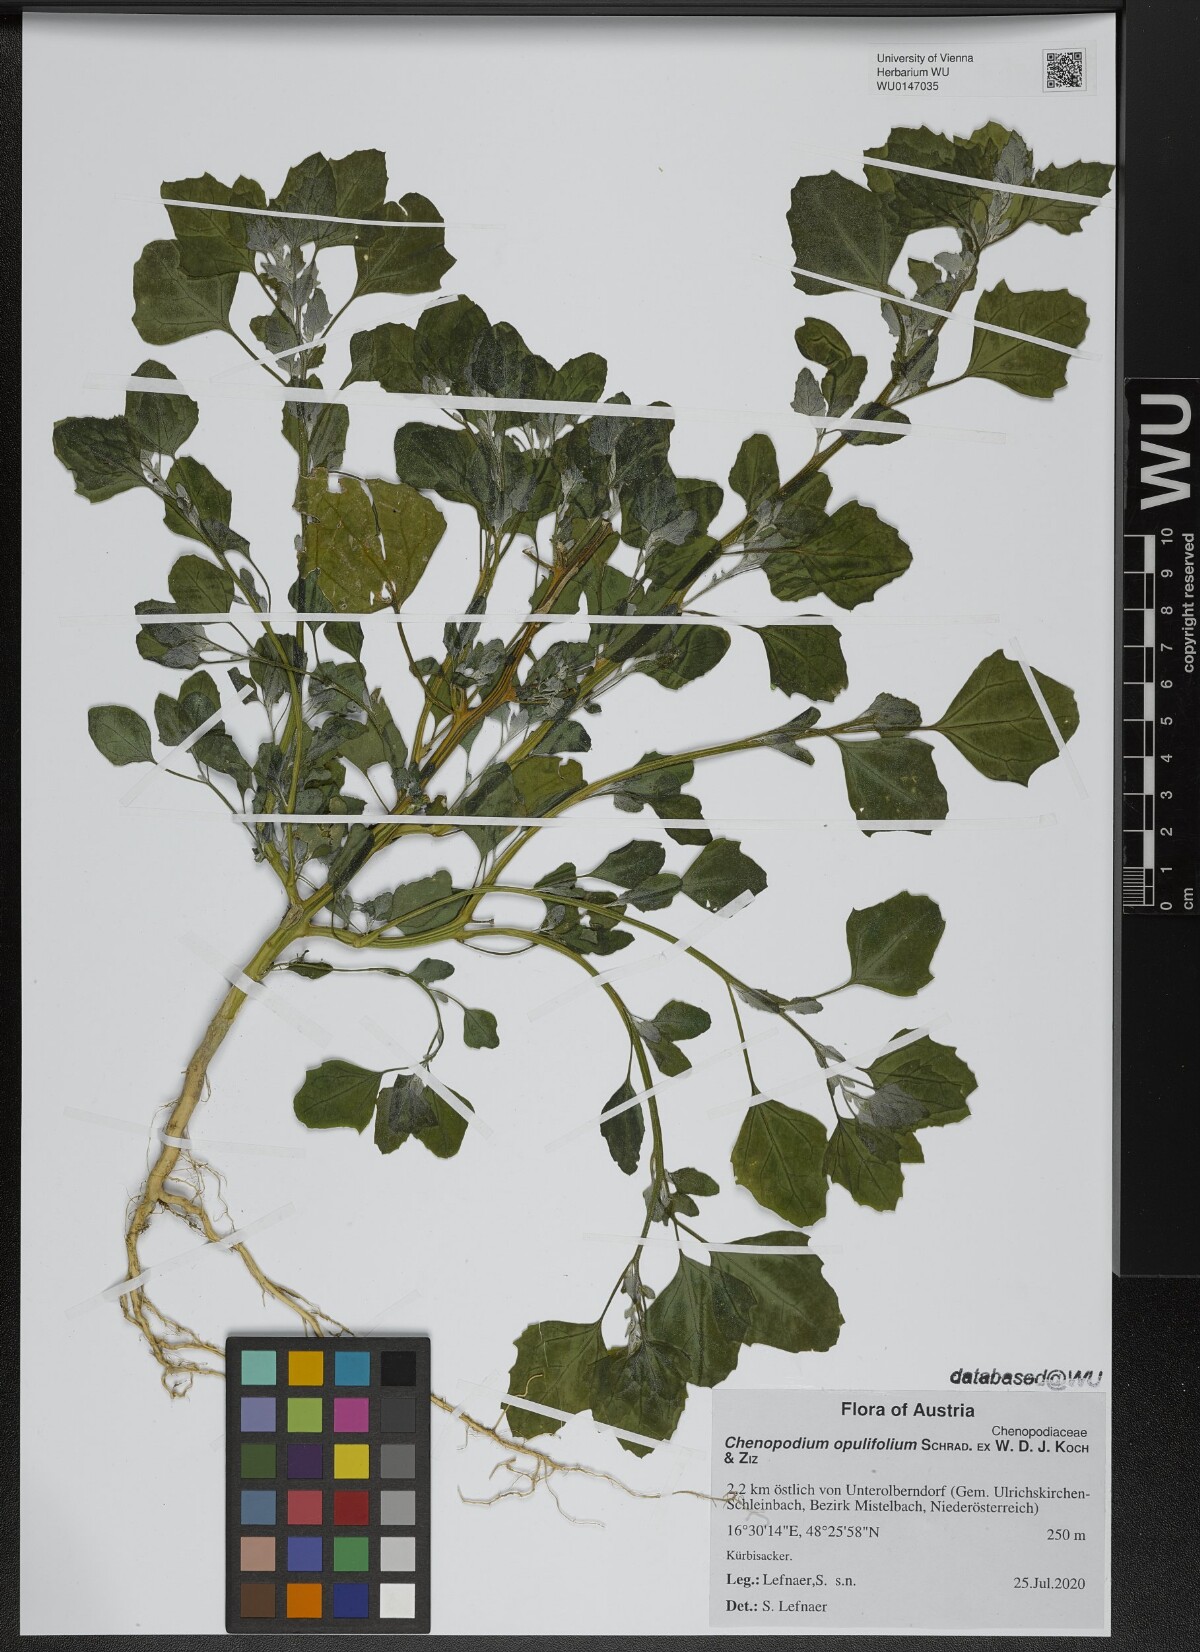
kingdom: Plantae
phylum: Tracheophyta
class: Magnoliopsida
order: Caryophyllales
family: Amaranthaceae
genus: Chenopodium
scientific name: Chenopodium opulifolium
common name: Grey goosefoot
